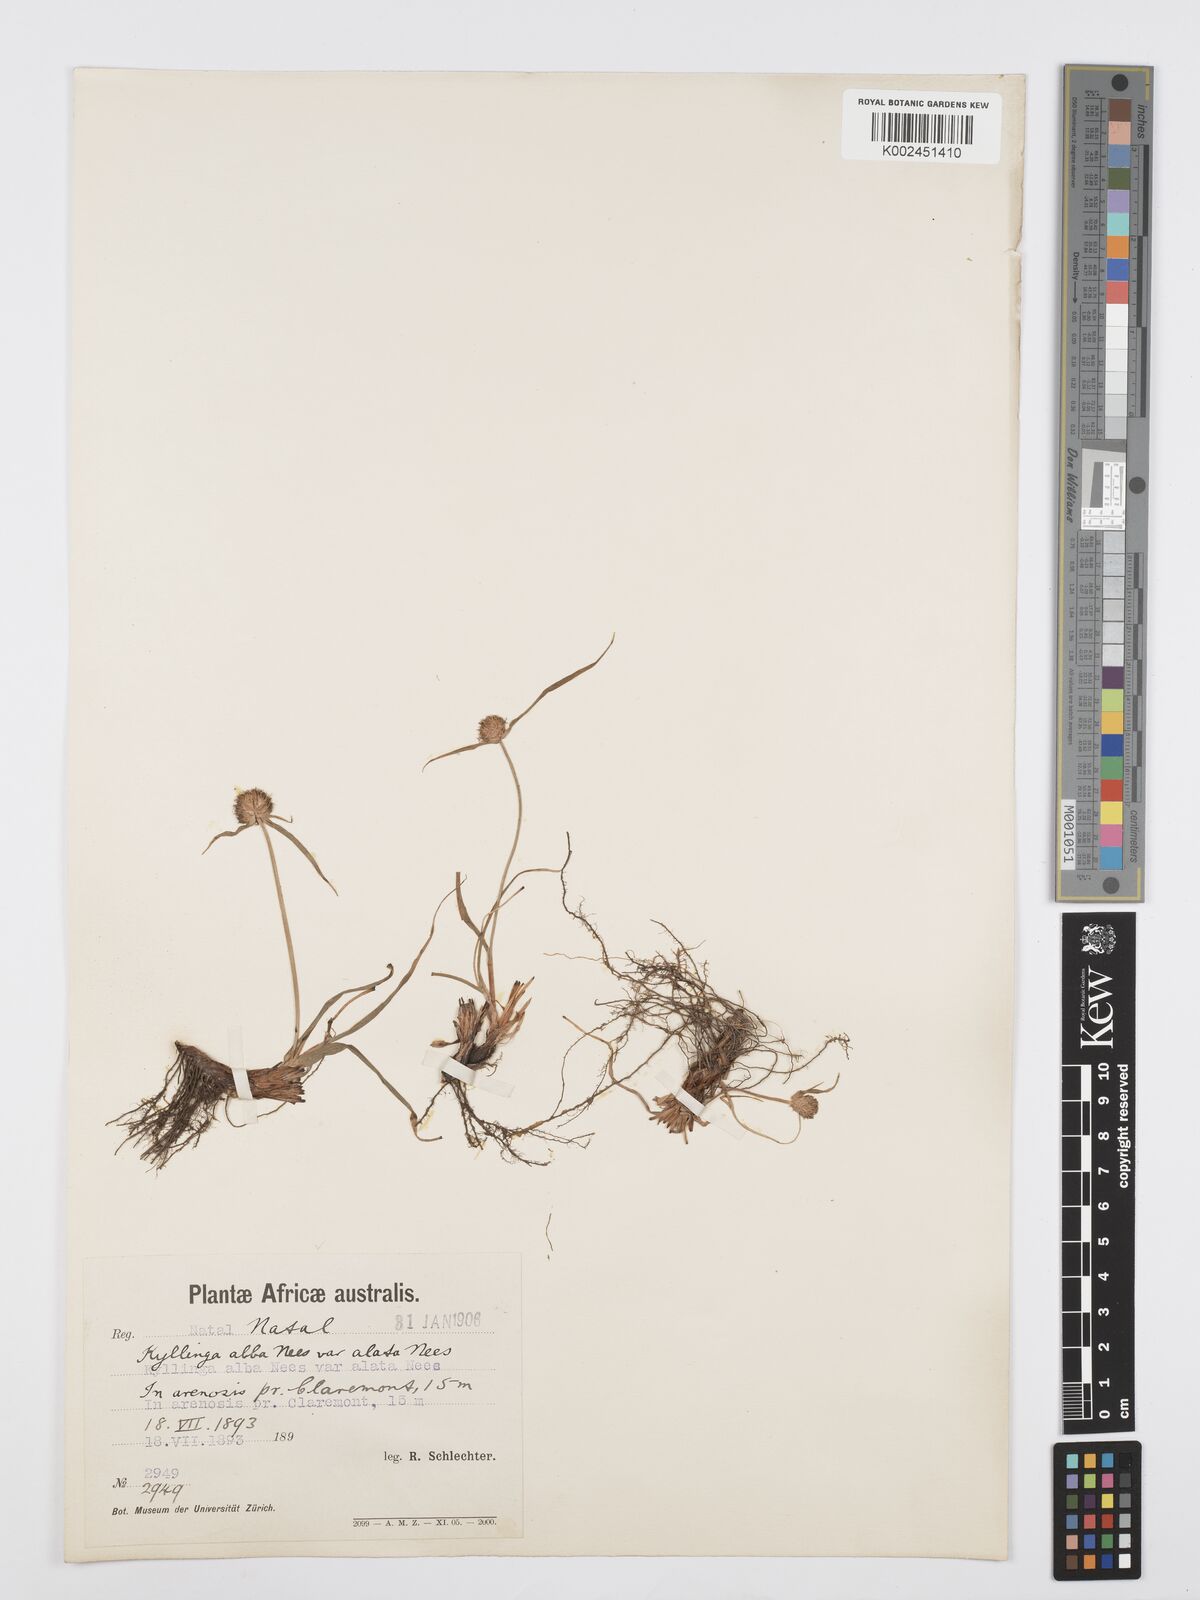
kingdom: Plantae
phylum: Tracheophyta
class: Liliopsida
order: Poales
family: Cyperaceae
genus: Cyperus
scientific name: Cyperus
